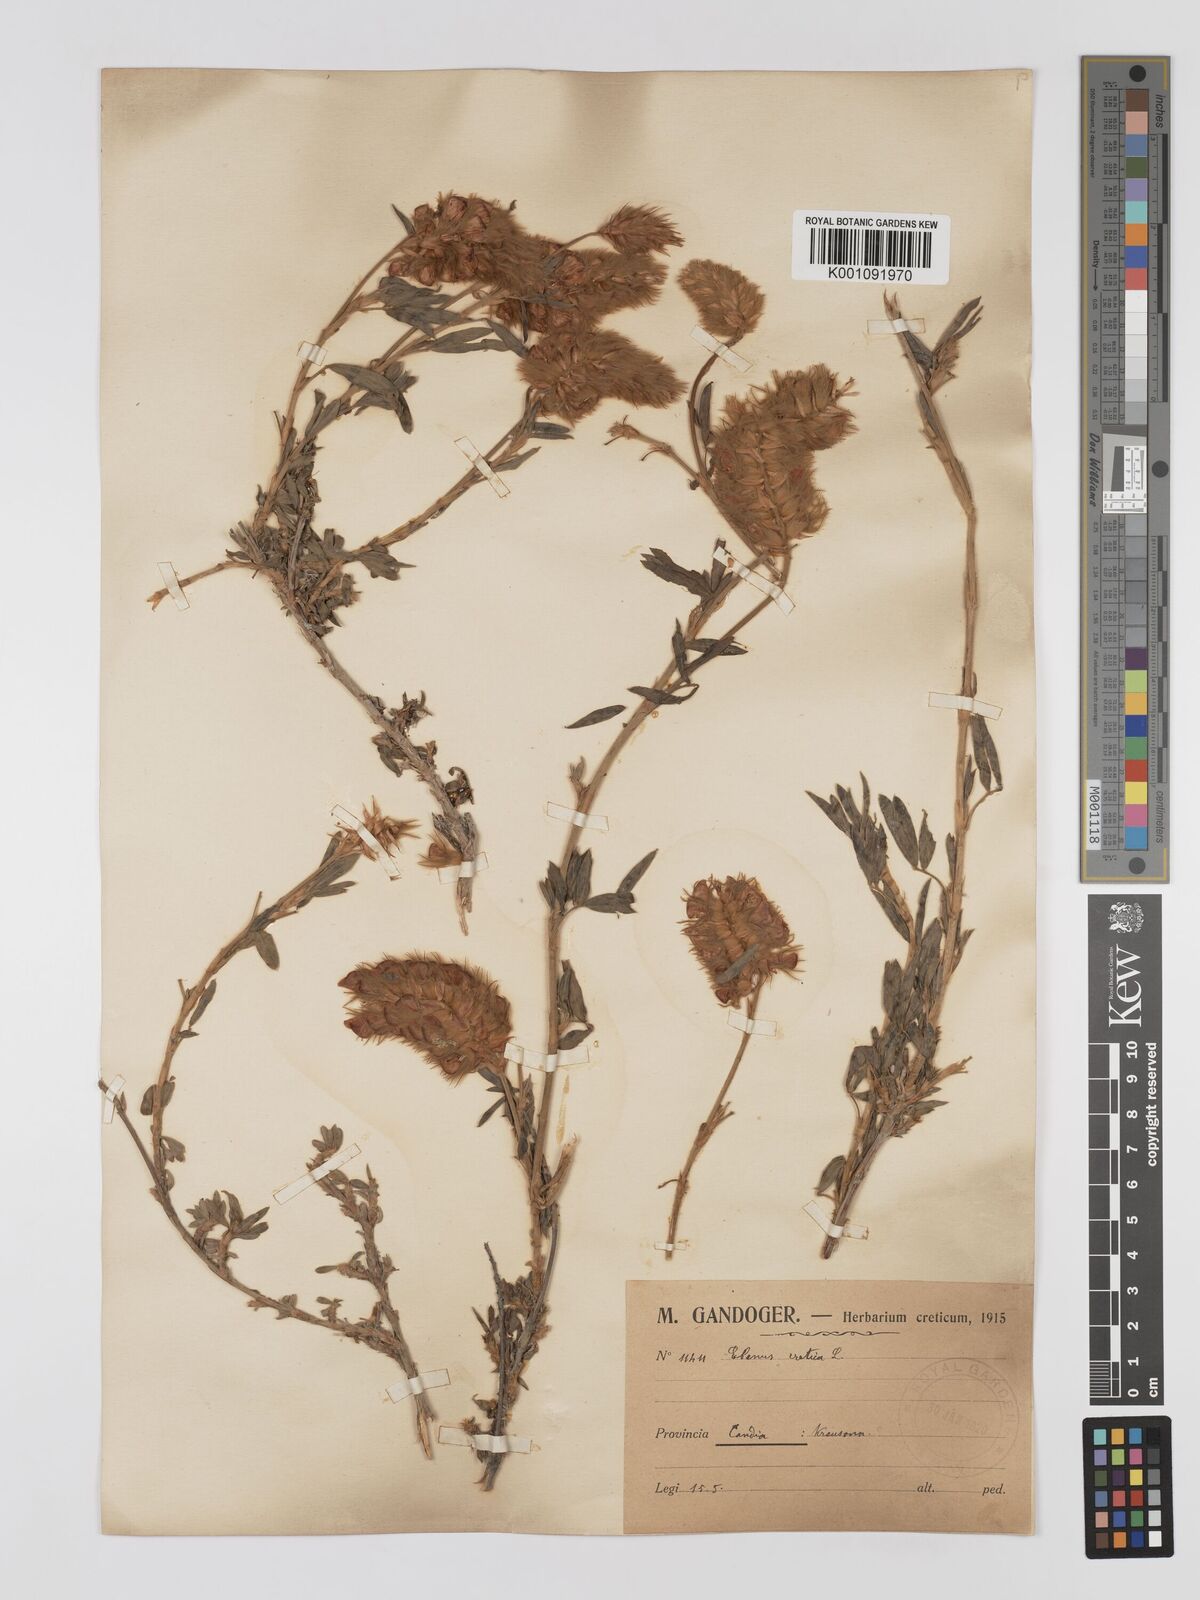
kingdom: Plantae
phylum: Tracheophyta
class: Magnoliopsida
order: Fabales
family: Fabaceae
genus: Ebenus
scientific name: Ebenus cretica
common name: Cretan silver bush
